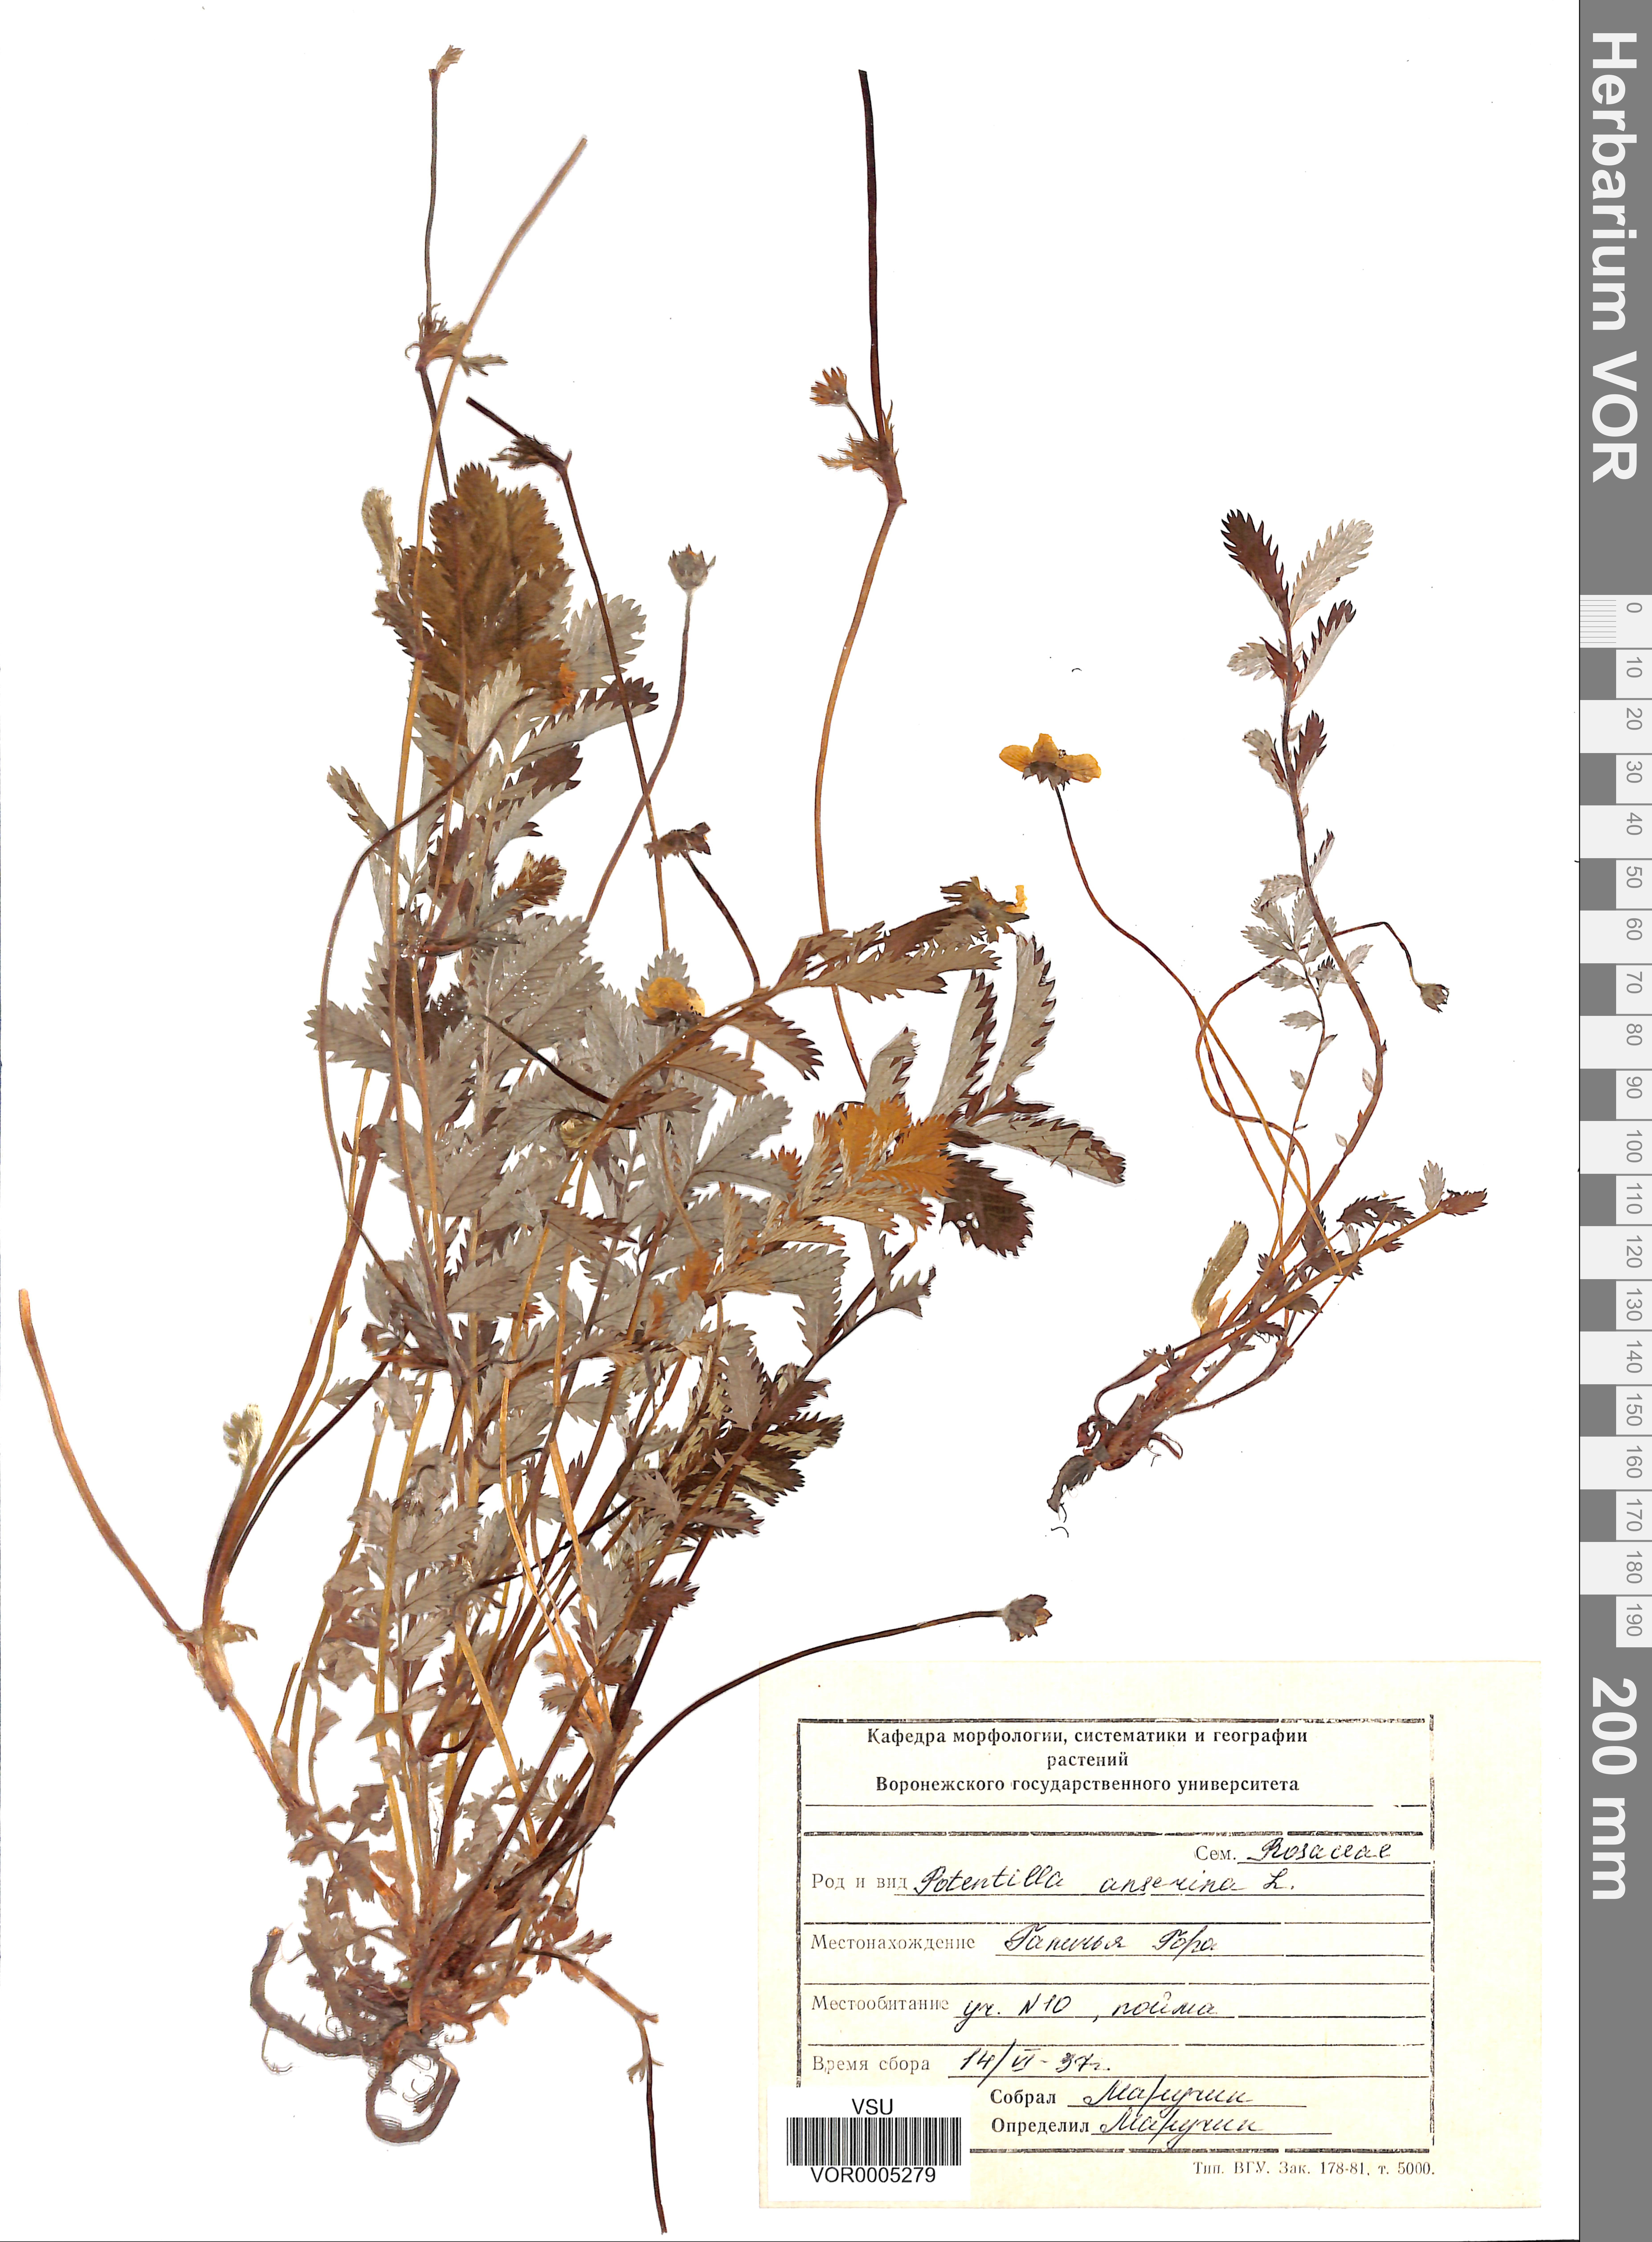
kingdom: Plantae
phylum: Tracheophyta
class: Magnoliopsida
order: Rosales
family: Rosaceae
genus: Argentina
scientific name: Argentina anserina
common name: Common silverweed
